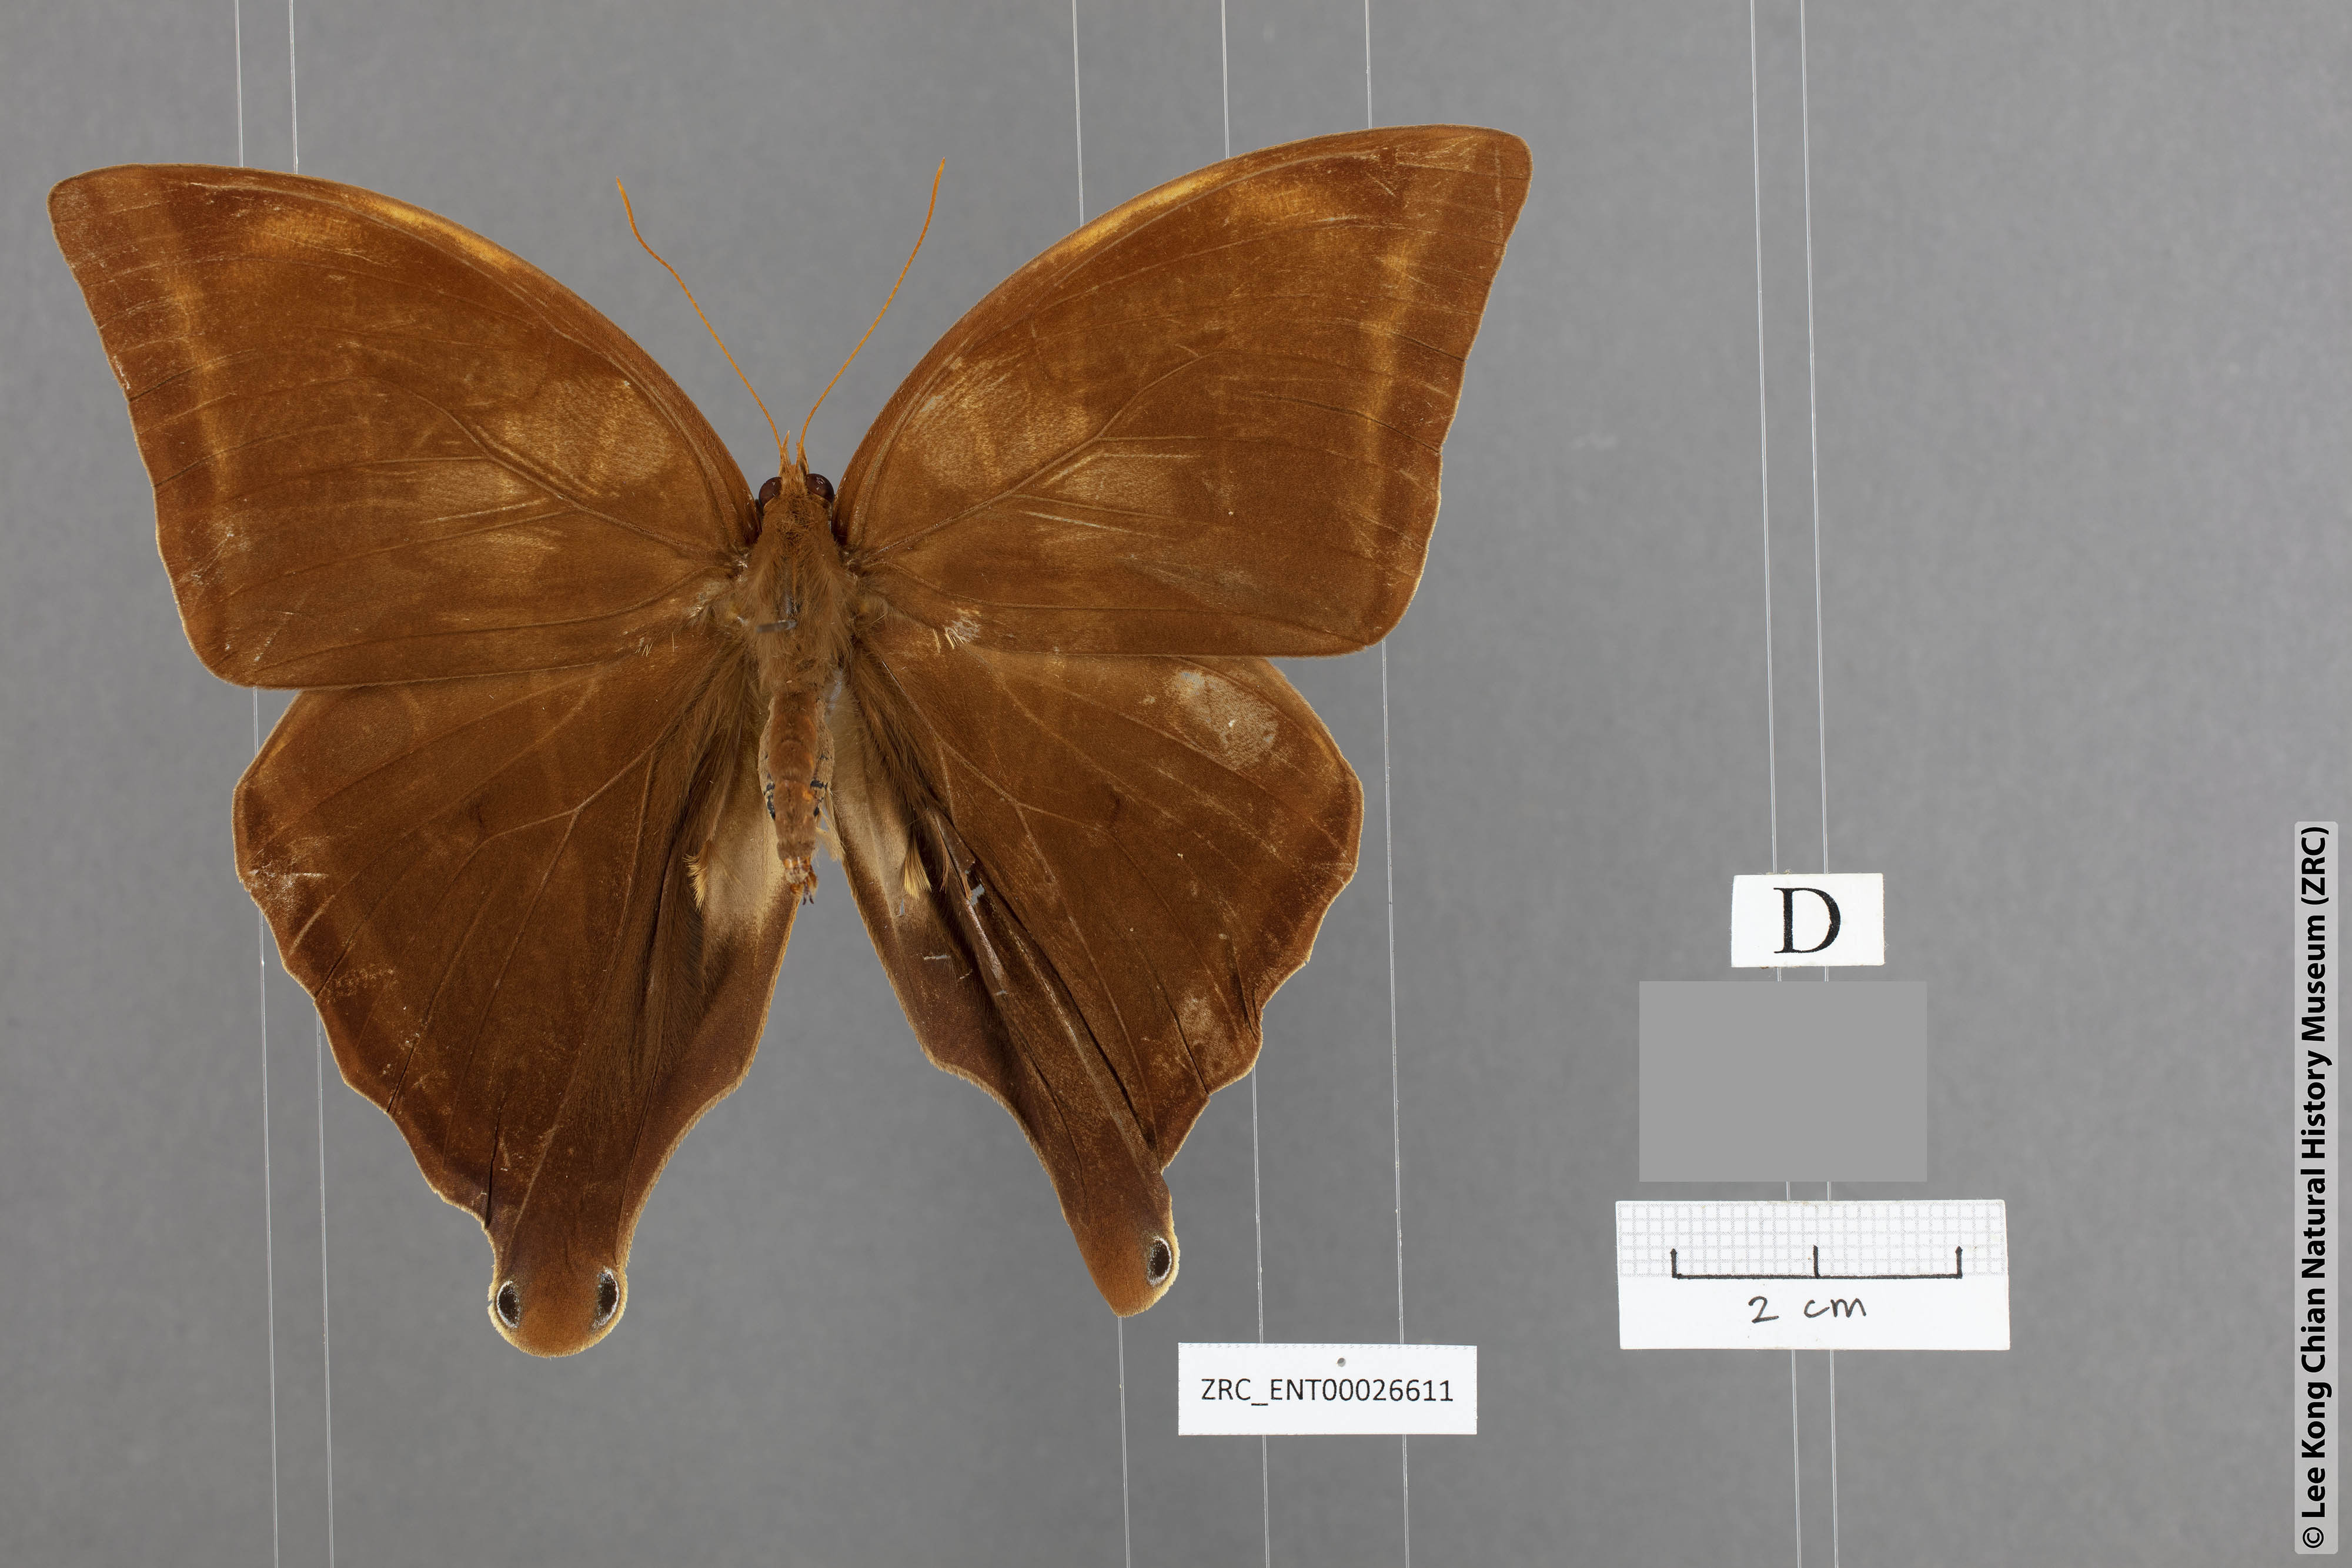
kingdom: Animalia
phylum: Arthropoda
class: Insecta
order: Lepidoptera
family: Nymphalidae
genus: Amathusia
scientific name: Amathusia masina
